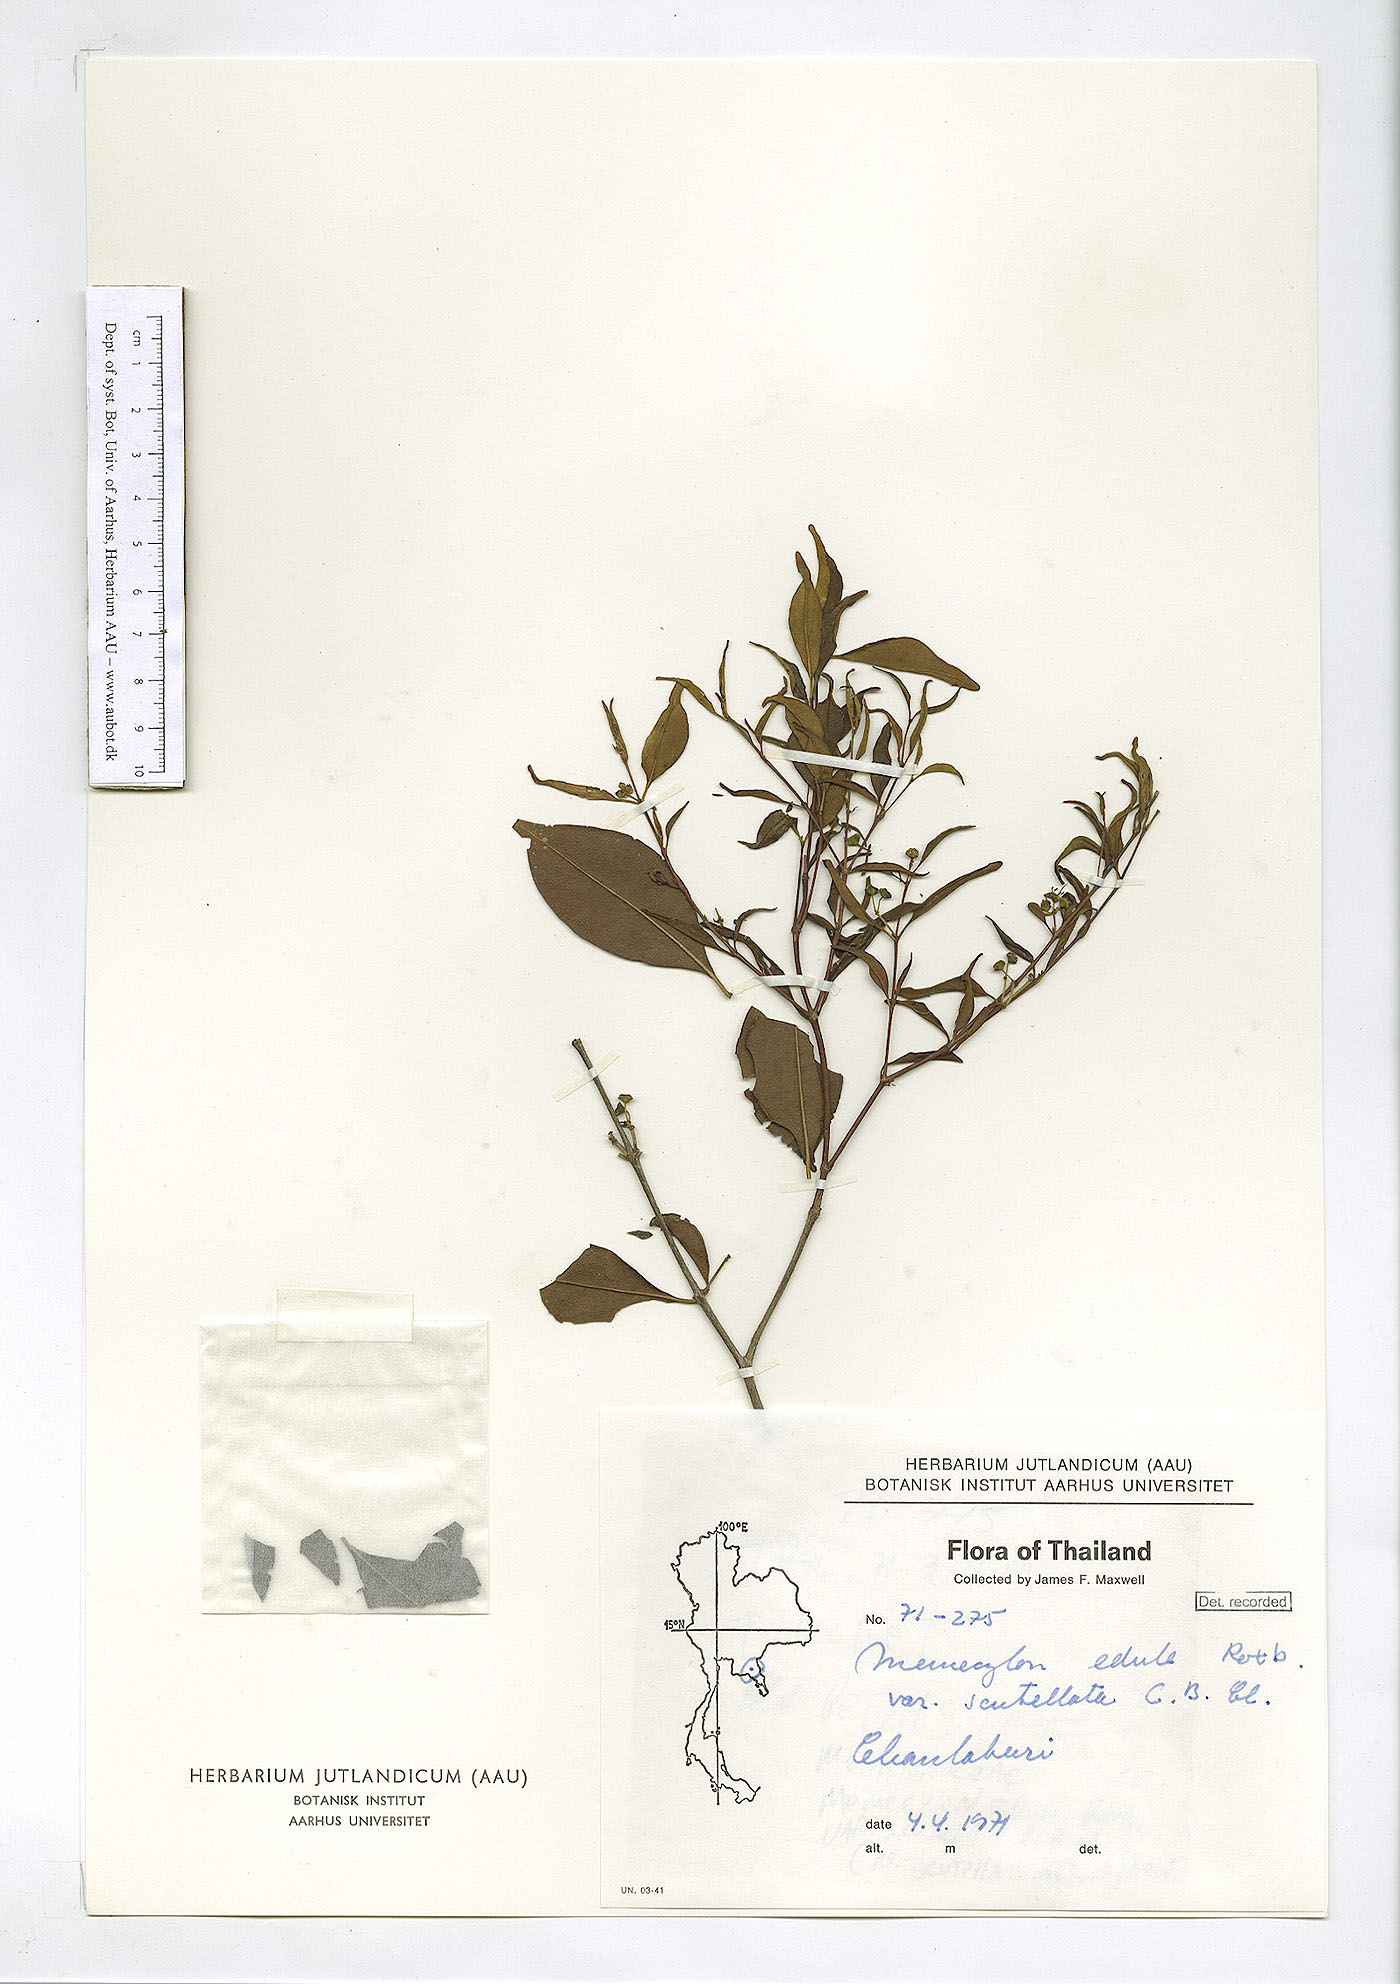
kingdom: Plantae
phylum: Tracheophyta
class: Magnoliopsida
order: Myrtales
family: Melastomataceae
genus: Memecylon
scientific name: Memecylon scutellatum
